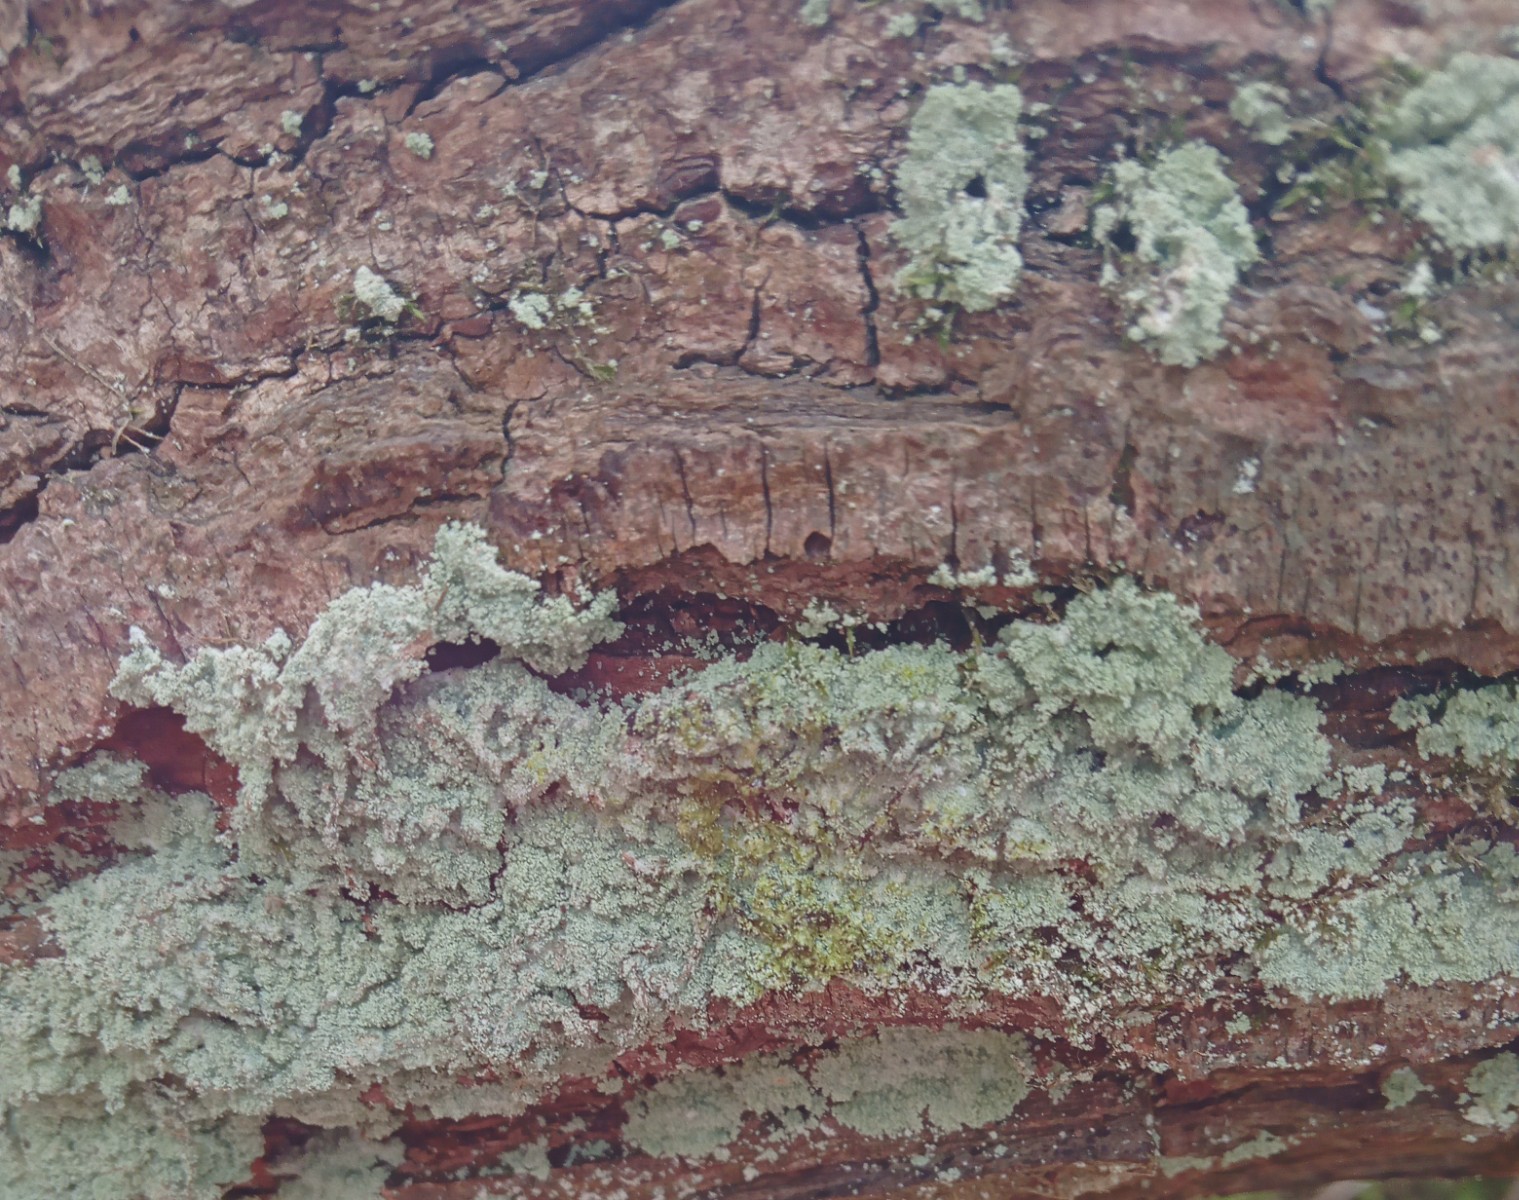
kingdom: Fungi
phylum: Ascomycota
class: Lecanoromycetes
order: Lecanorales
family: Stereocaulaceae
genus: Lepraria
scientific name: Lepraria lobificans
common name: grøn støvlav
